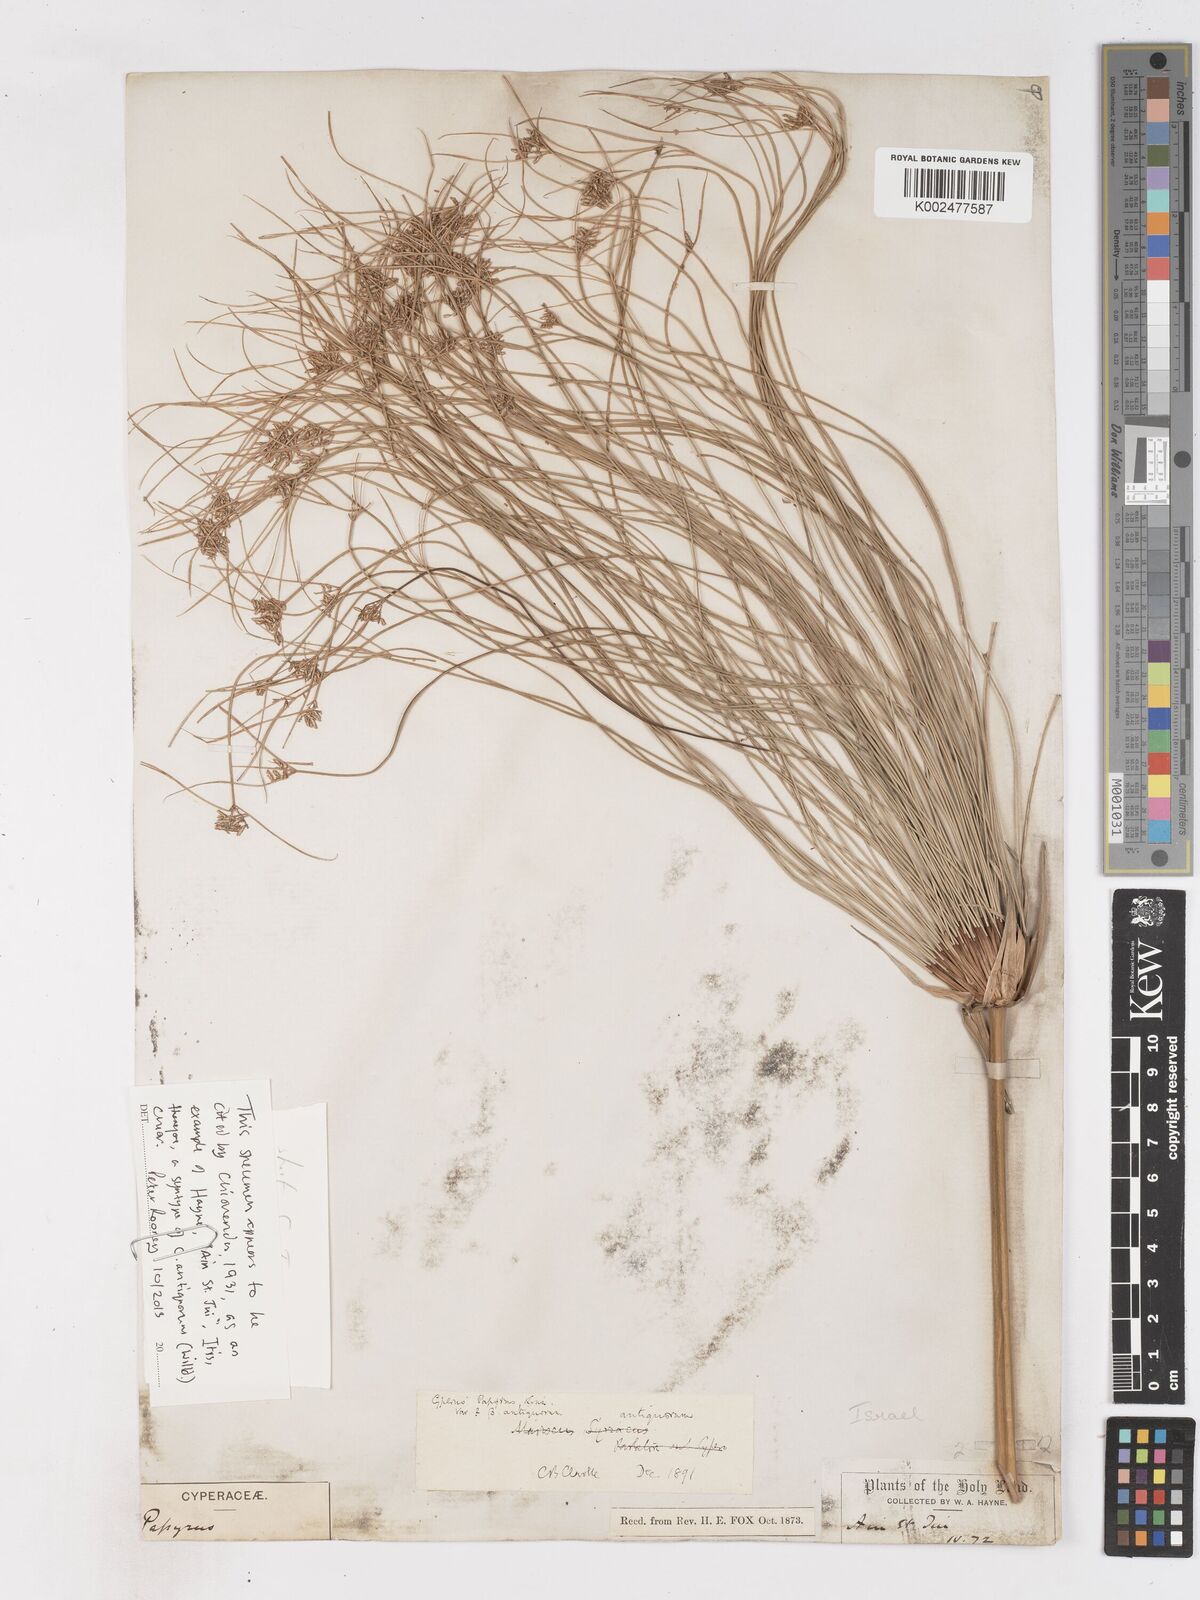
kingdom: Plantae
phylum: Tracheophyta
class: Liliopsida
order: Poales
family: Cyperaceae
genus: Cyperus
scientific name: Cyperus papyrus
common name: Papyrus
